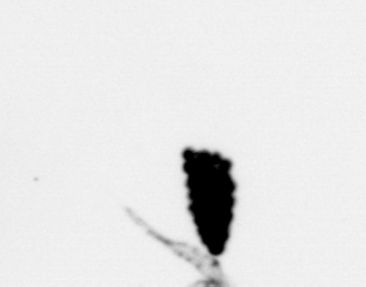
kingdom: Animalia
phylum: Arthropoda
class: Copepoda
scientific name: Copepoda
